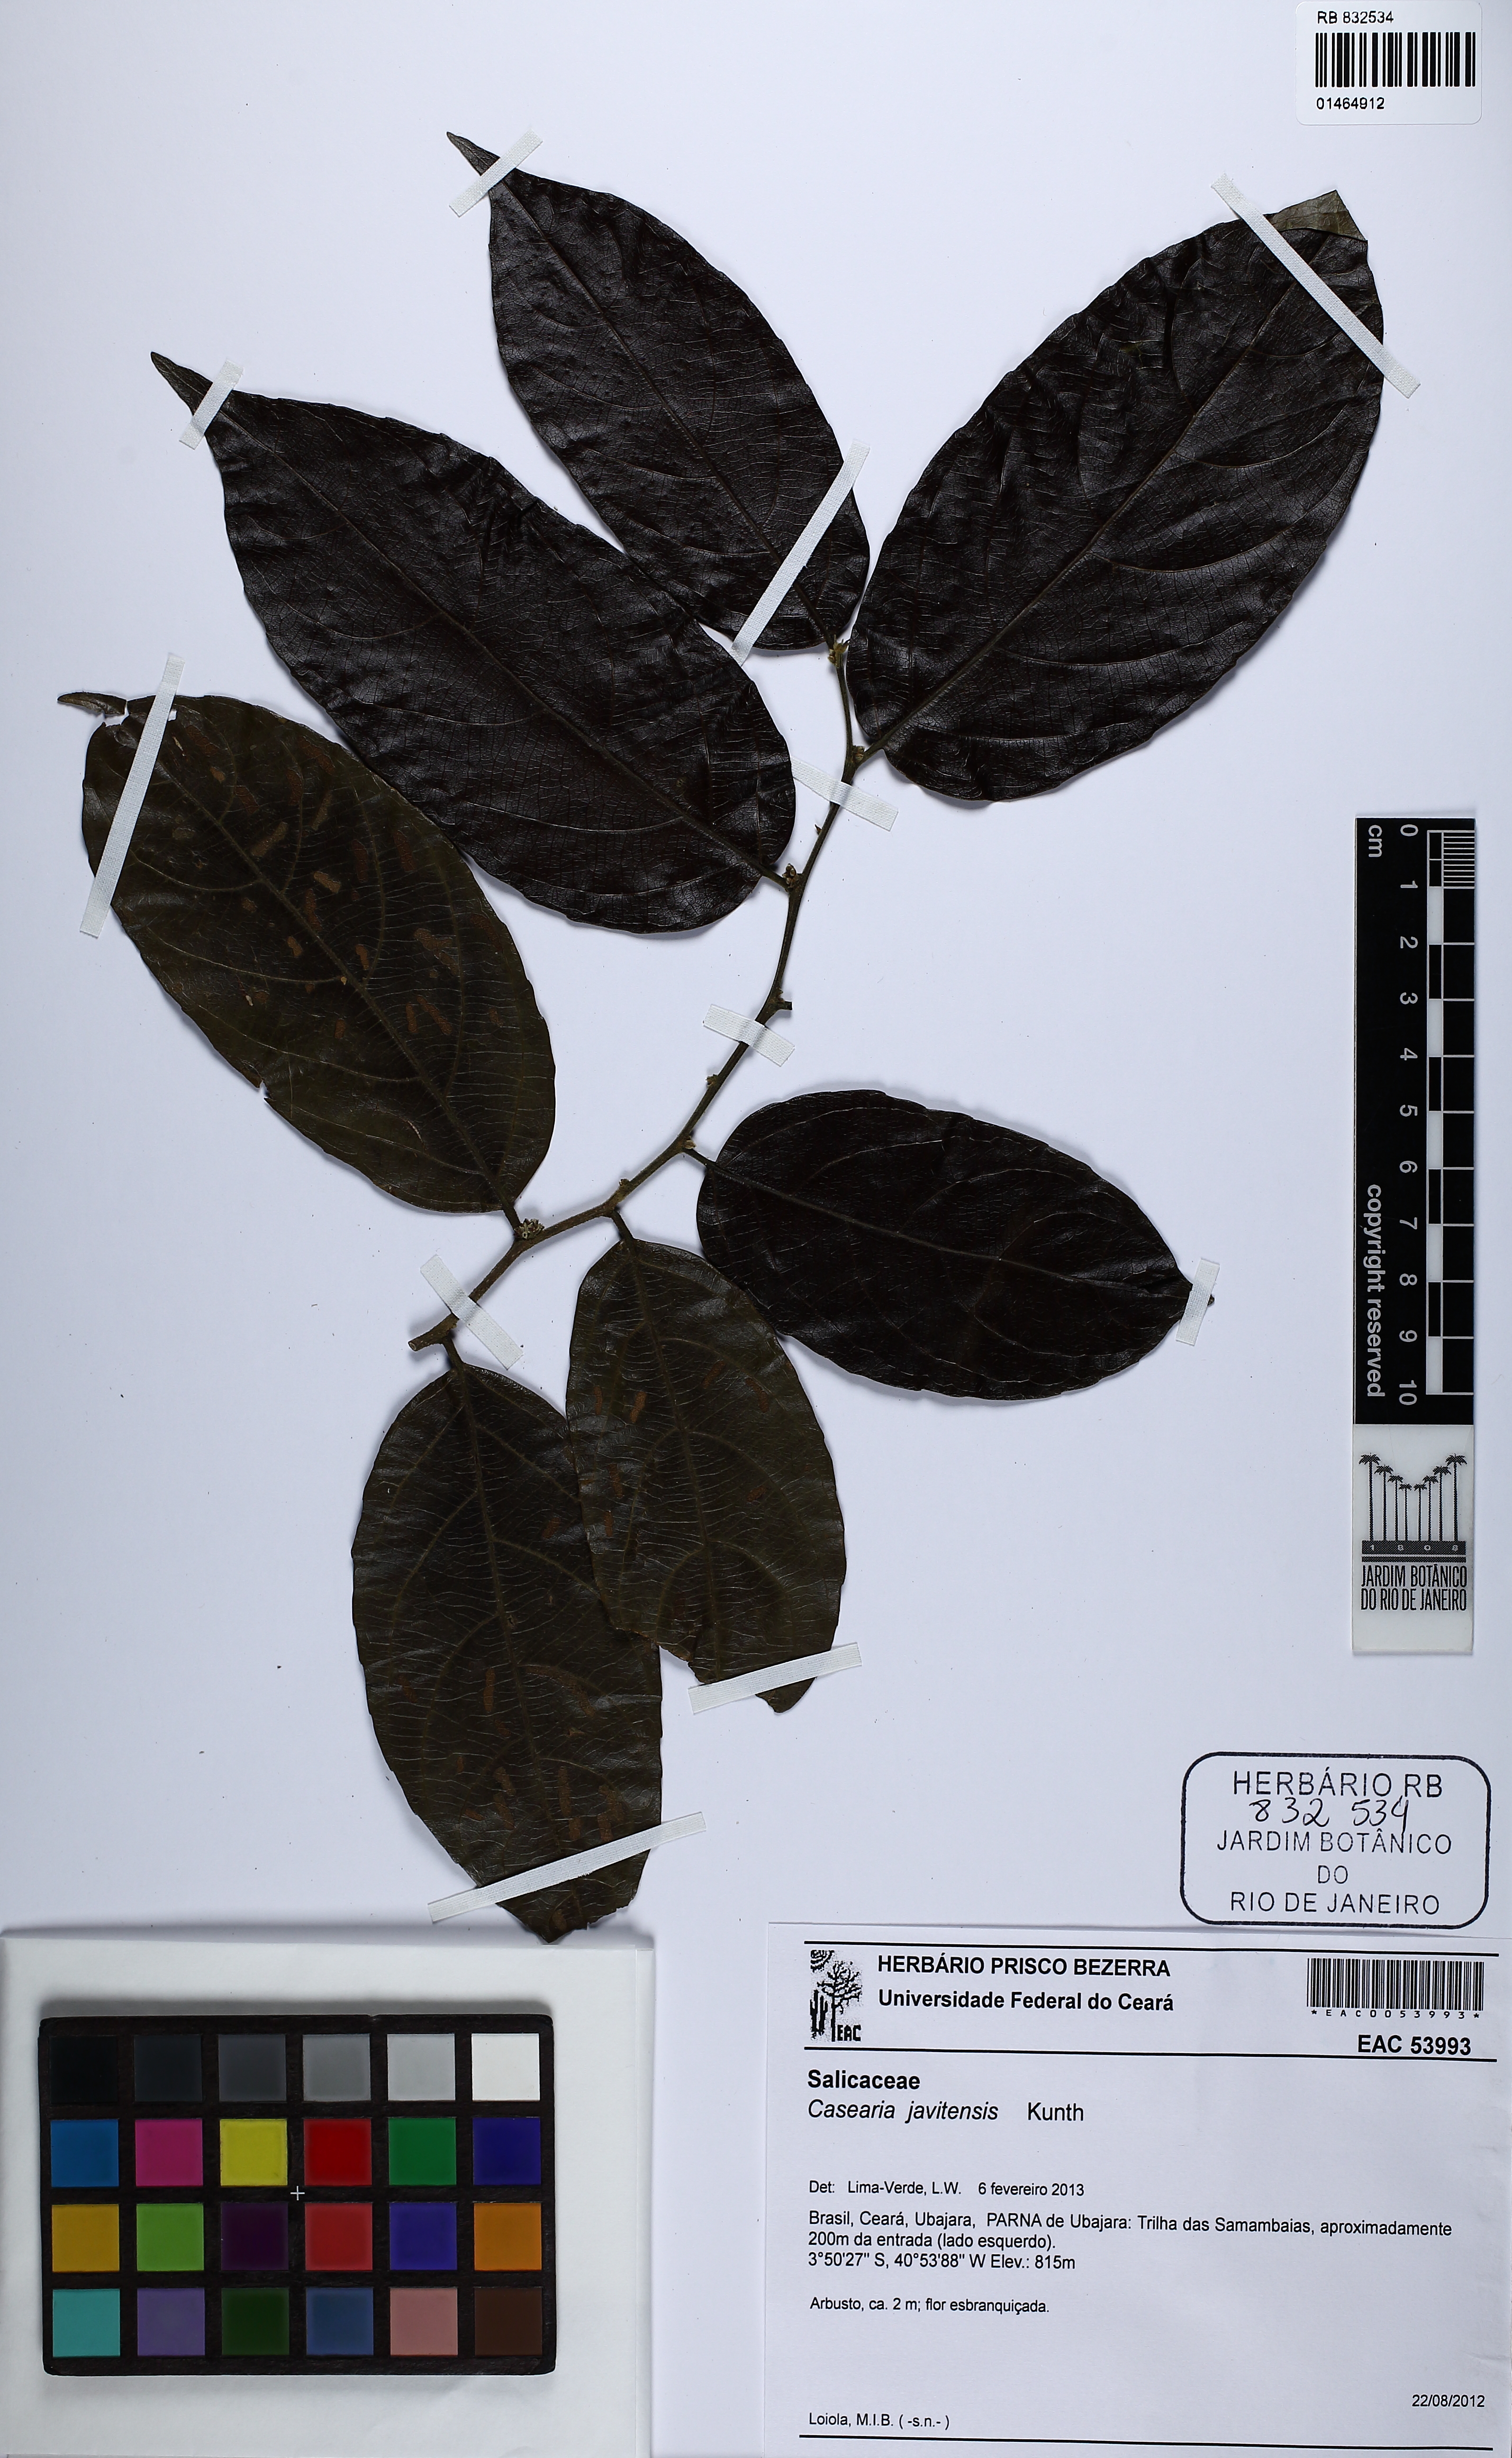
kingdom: Plantae
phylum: Tracheophyta
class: Magnoliopsida
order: Malpighiales
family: Salicaceae
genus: Piparea
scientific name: Piparea multiflora
